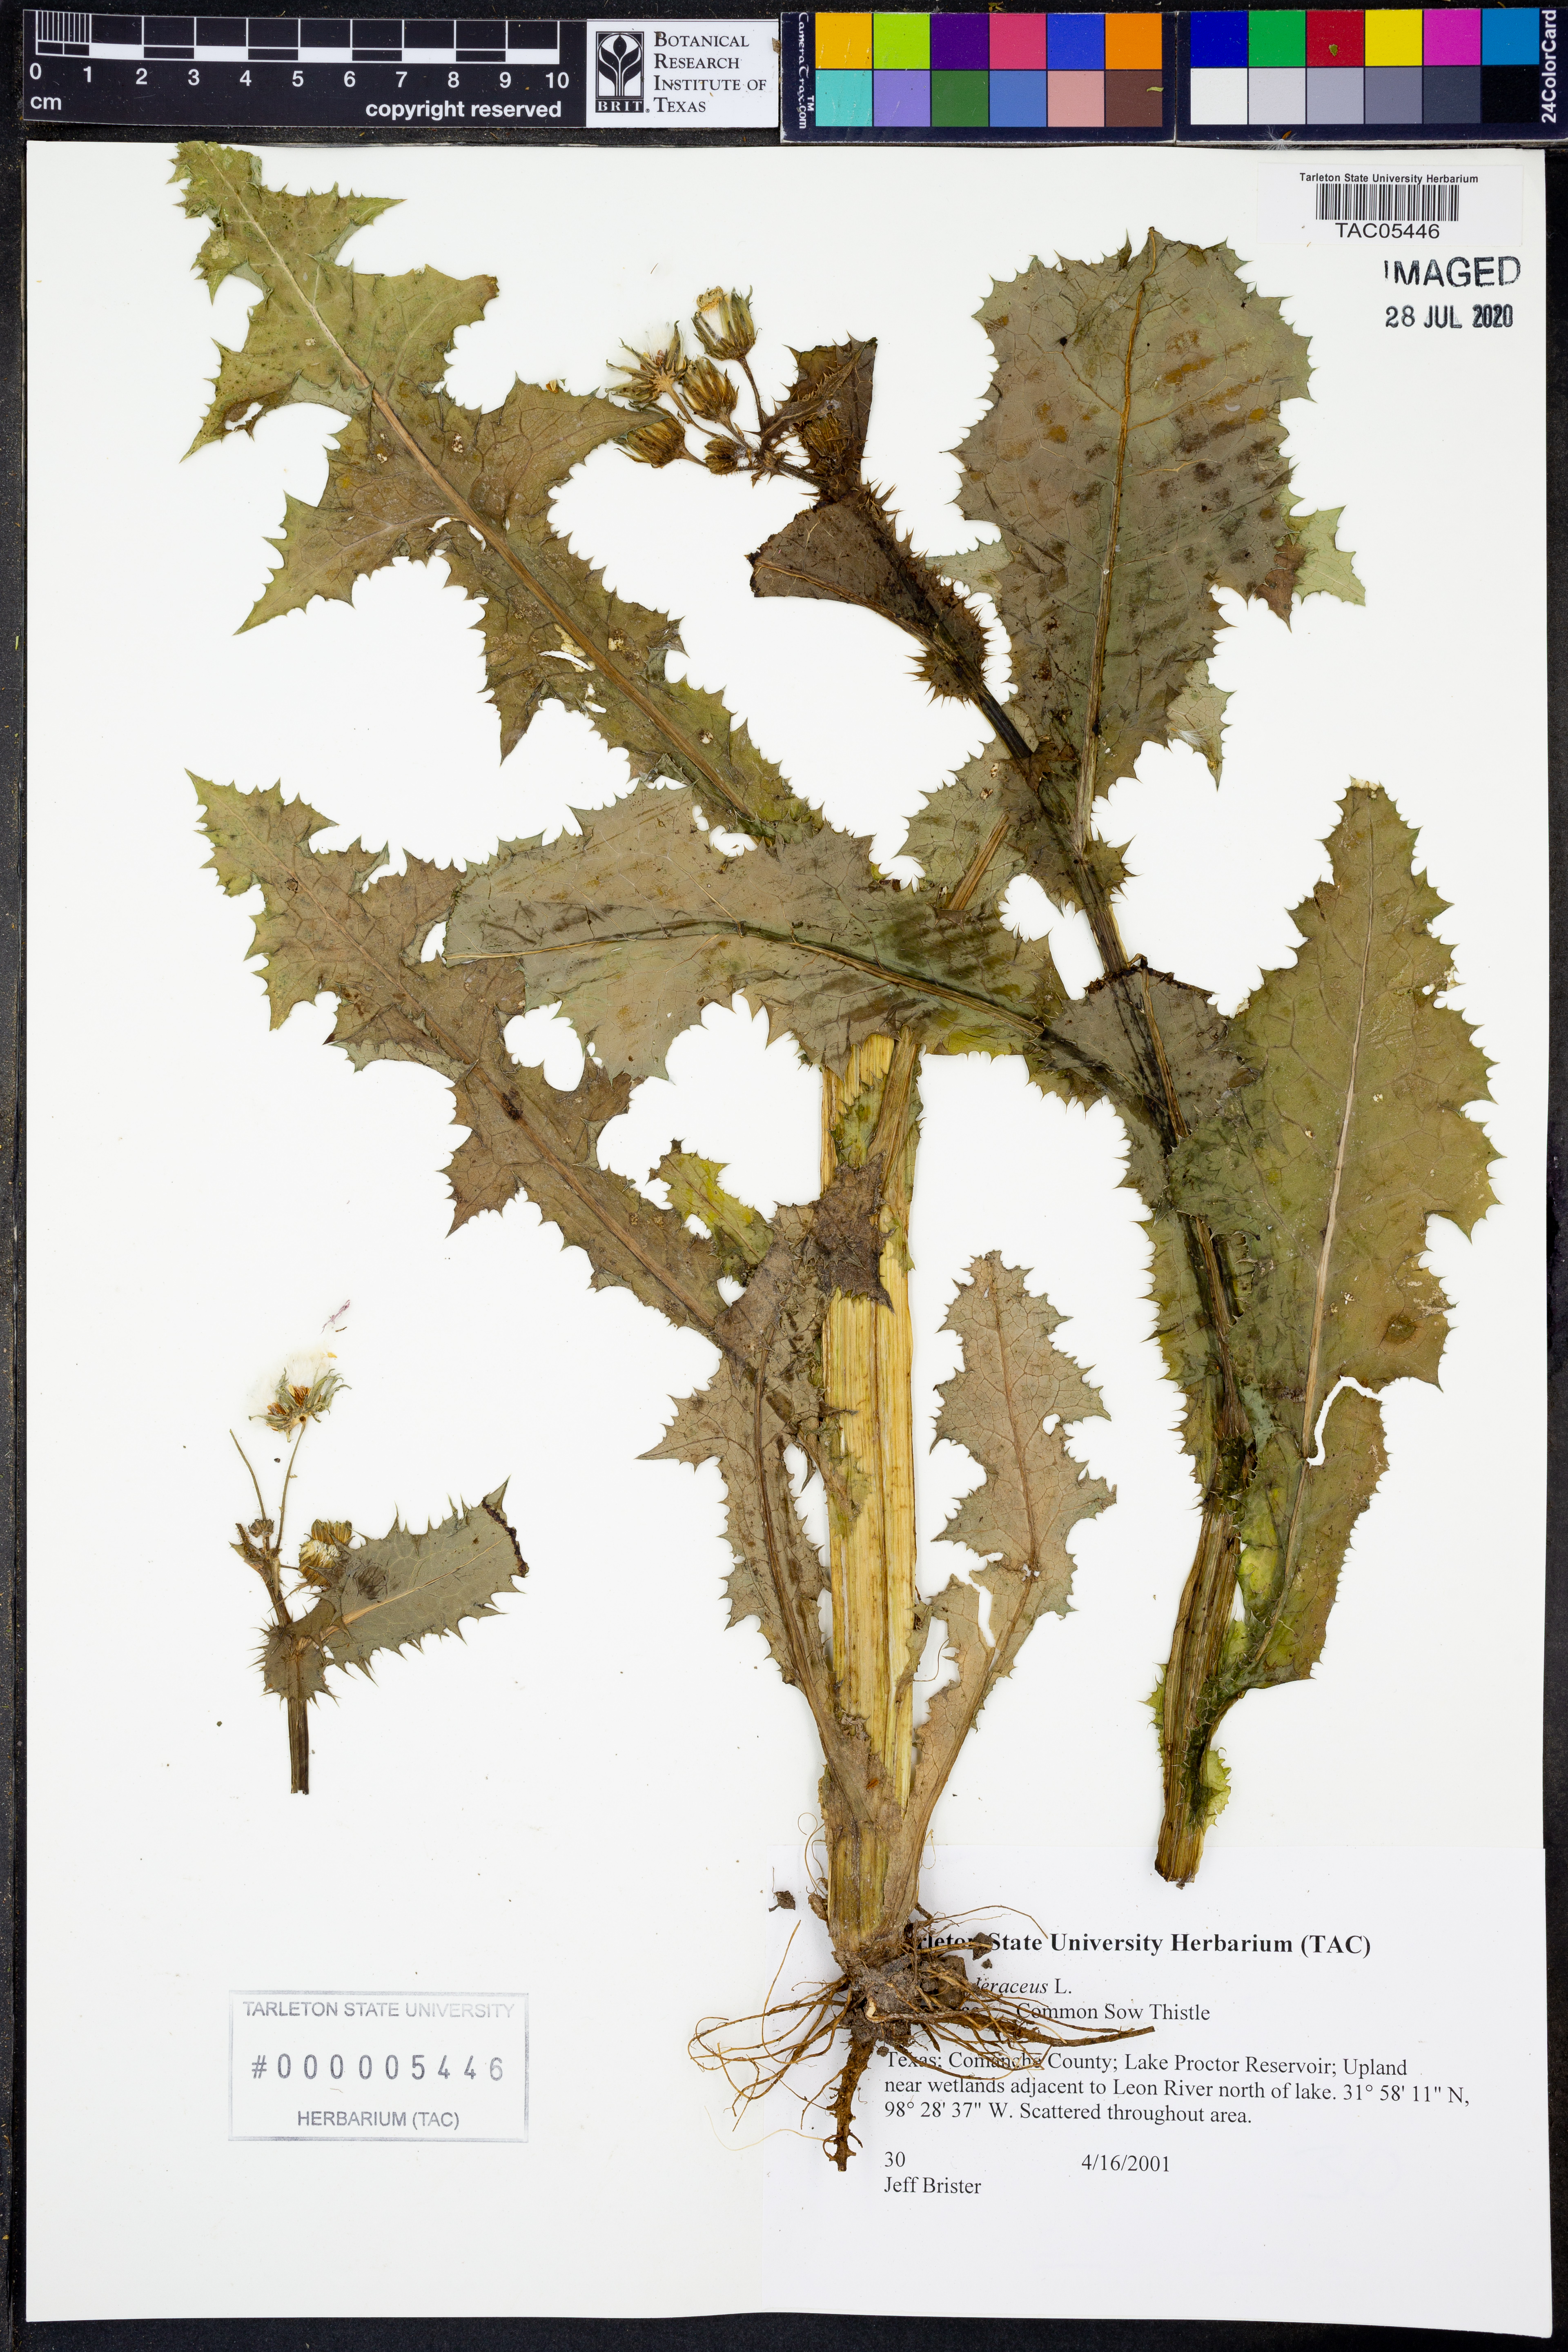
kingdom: Plantae
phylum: Tracheophyta
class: Magnoliopsida
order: Asterales
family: Asteraceae
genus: Sonchus
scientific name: Sonchus oleraceus
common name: Common sowthistle
